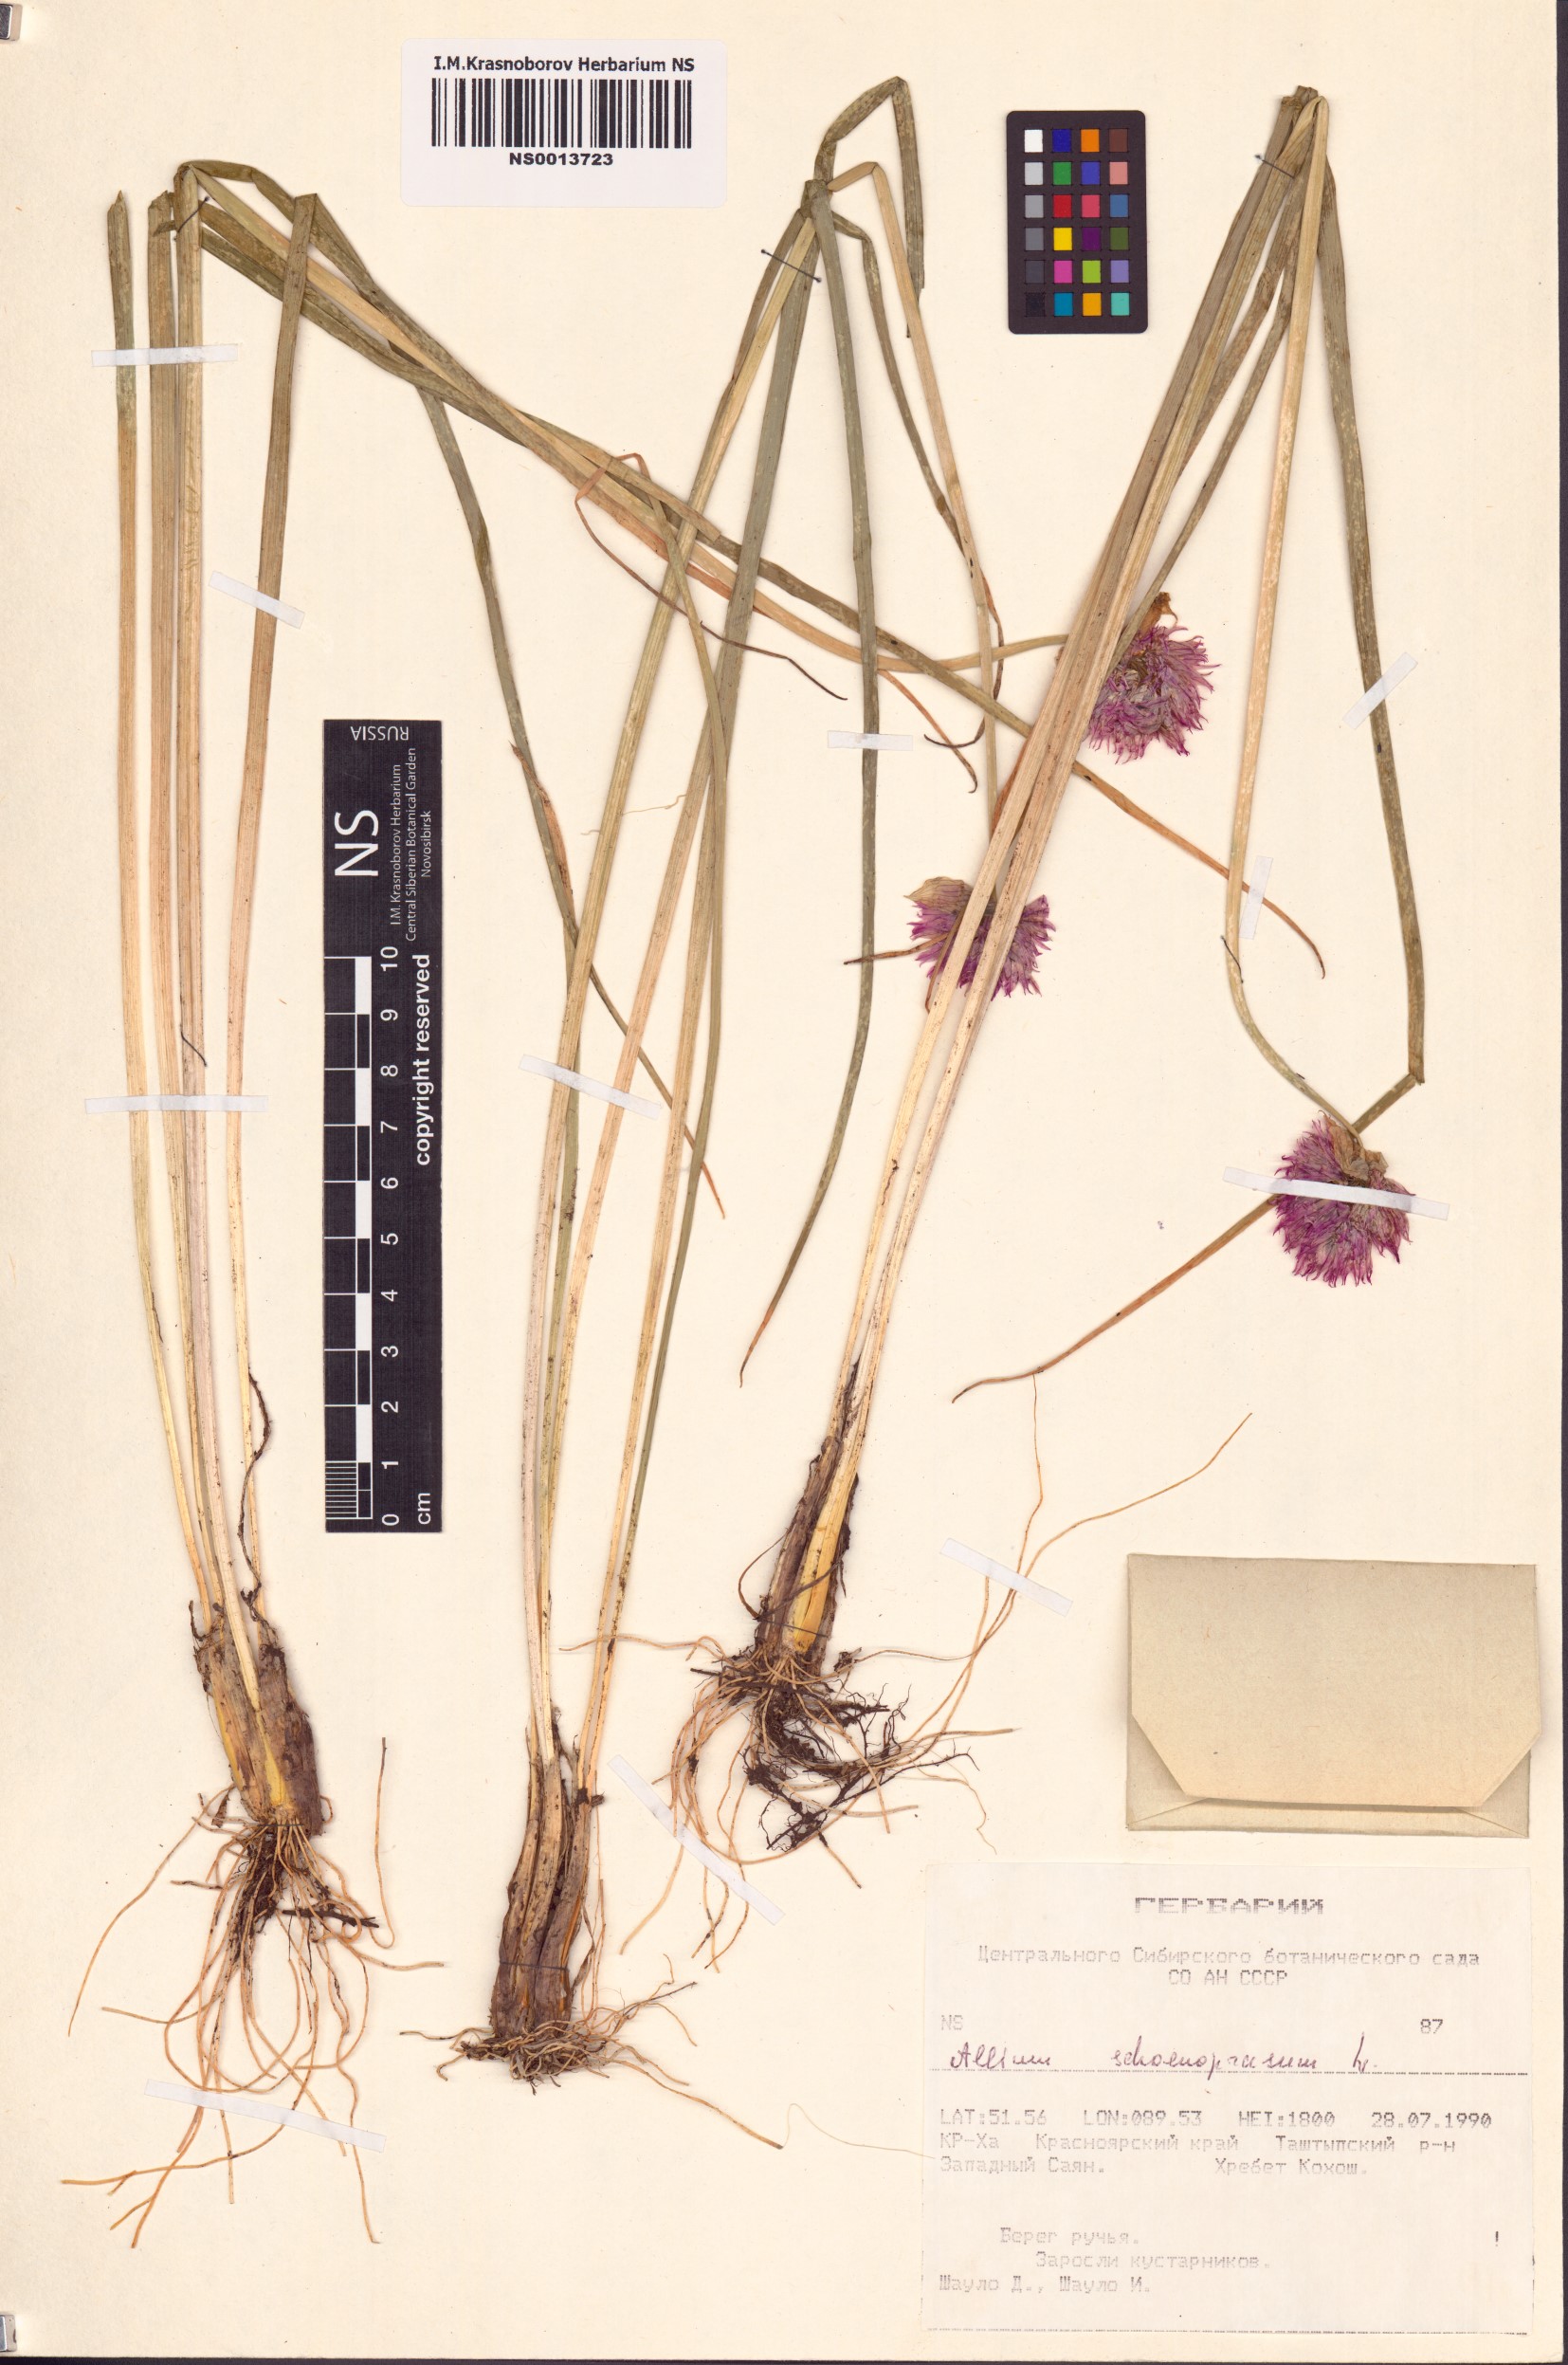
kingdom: Plantae
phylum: Tracheophyta
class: Liliopsida
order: Asparagales
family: Amaryllidaceae
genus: Allium
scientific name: Allium schoenoprasum
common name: Chives
